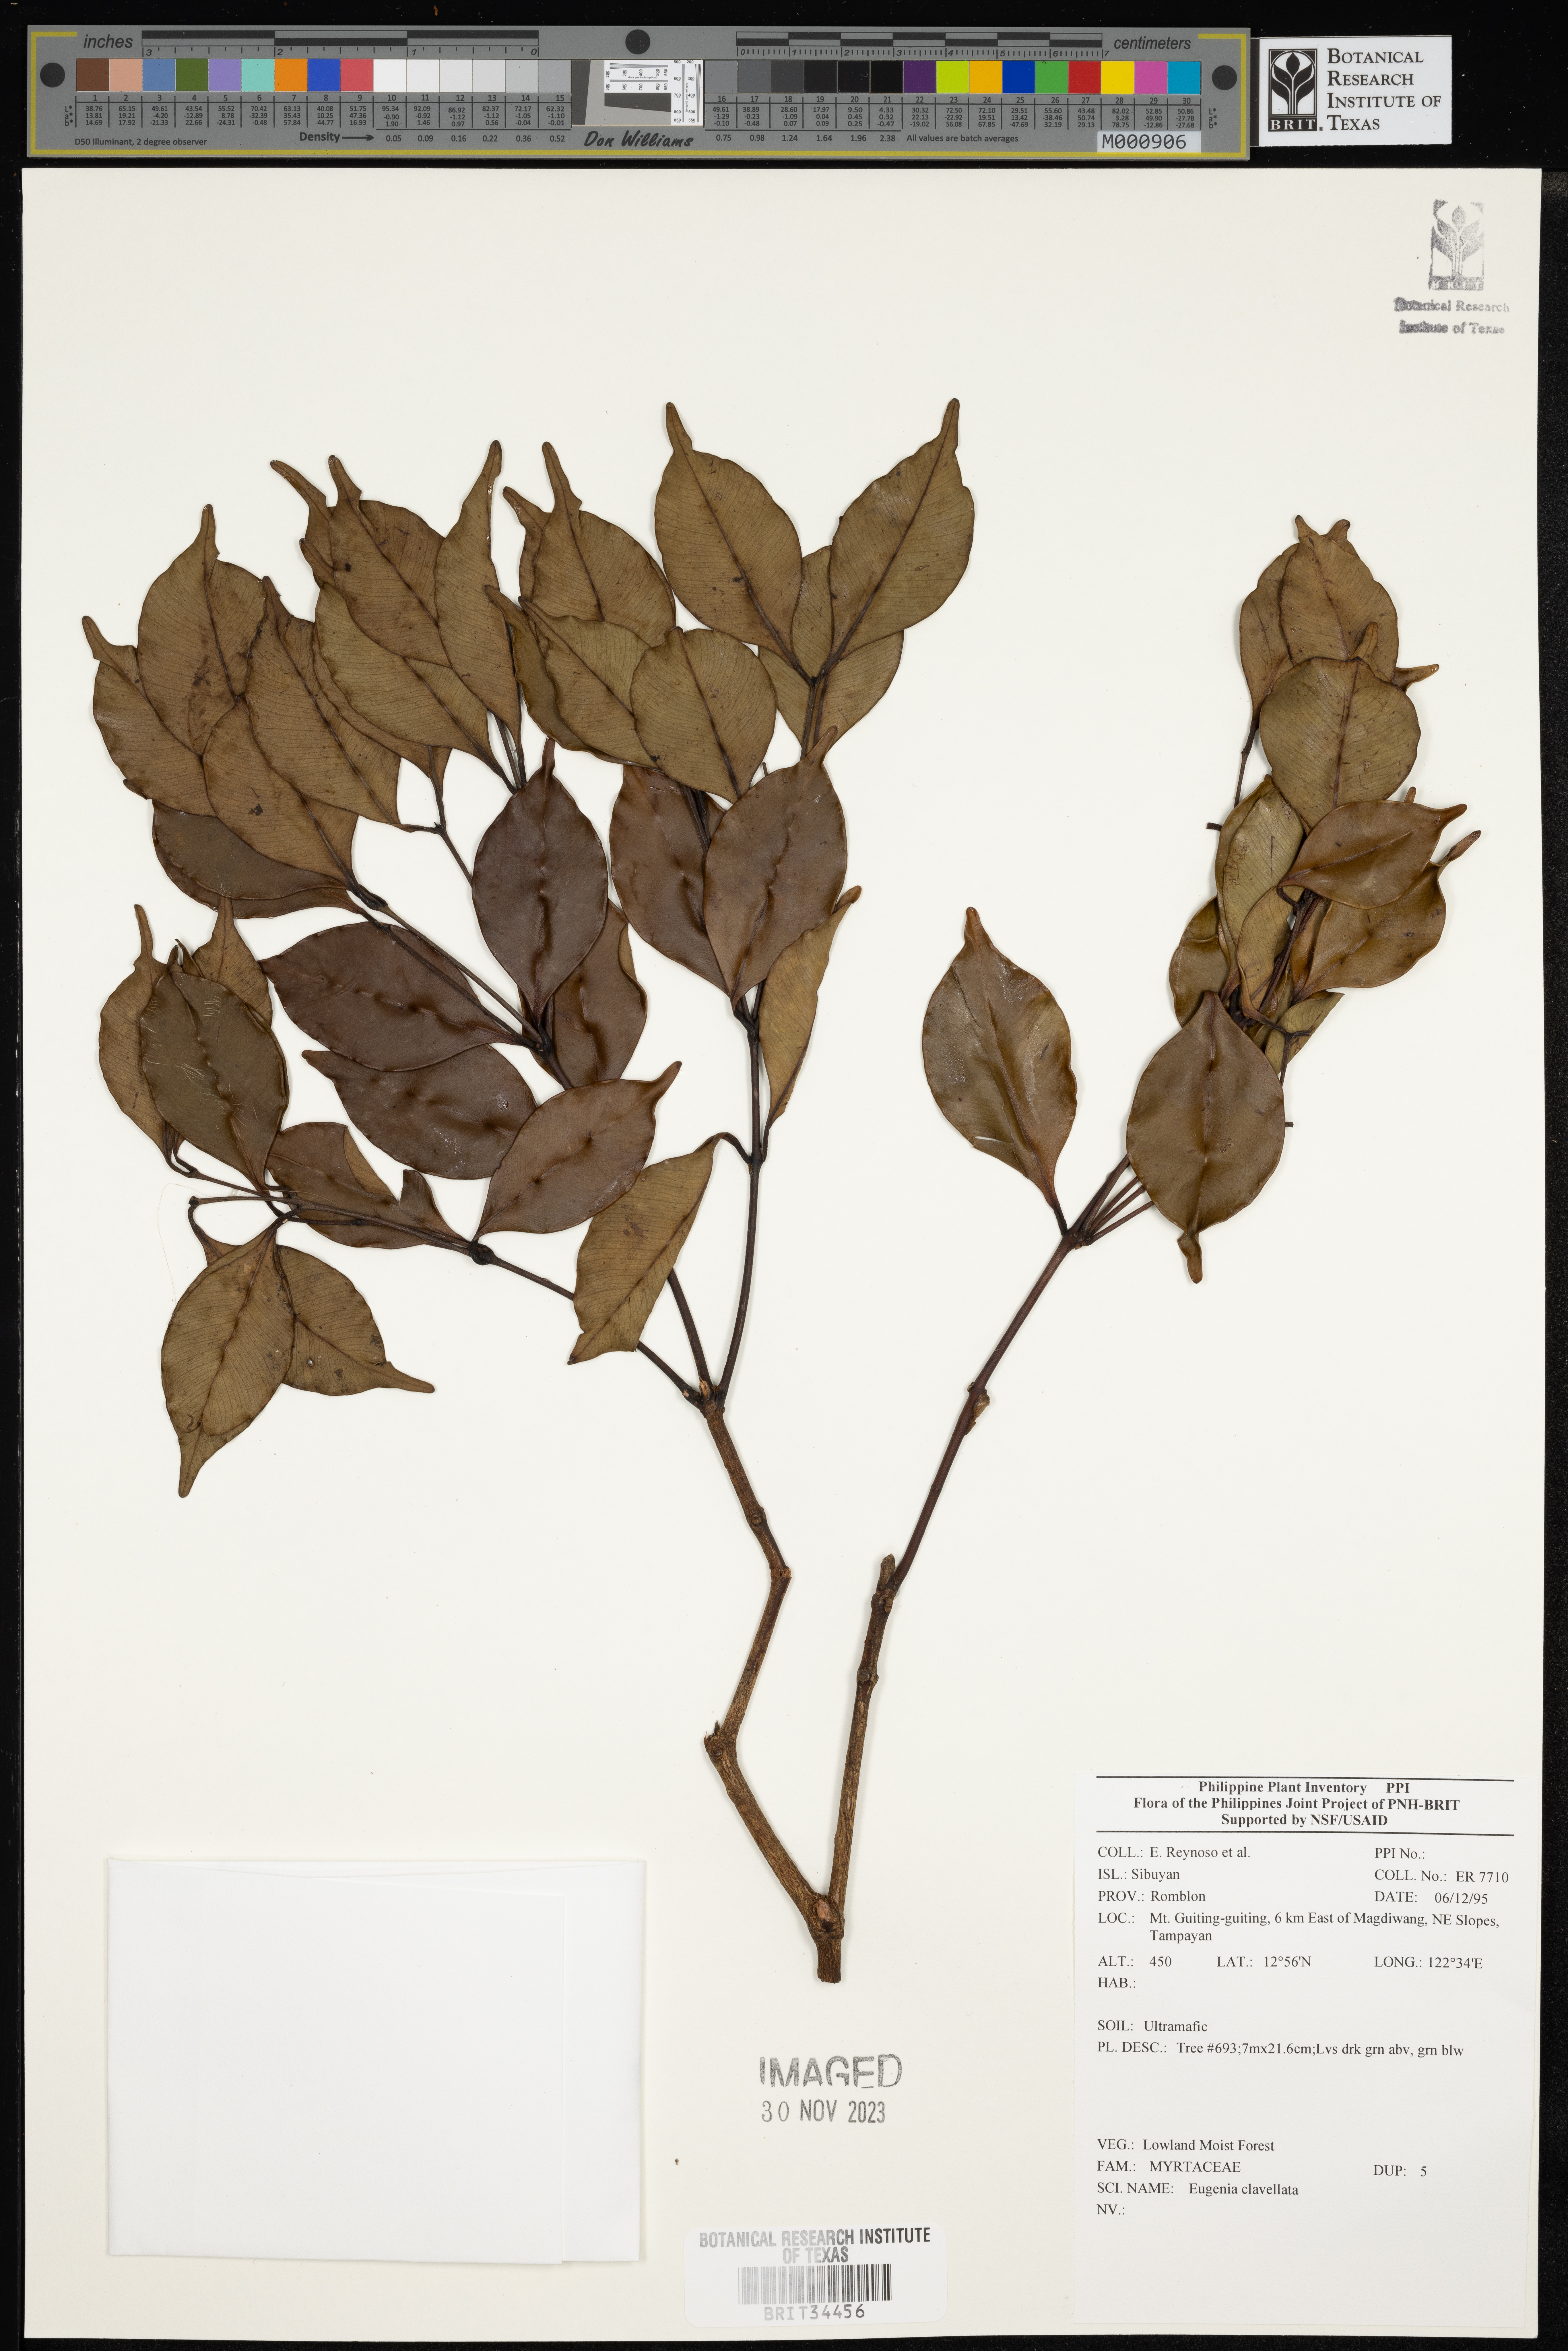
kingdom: Plantae
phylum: Tracheophyta
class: Magnoliopsida
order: Myrtales
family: Myrtaceae
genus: Eugenia
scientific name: Eugenia
